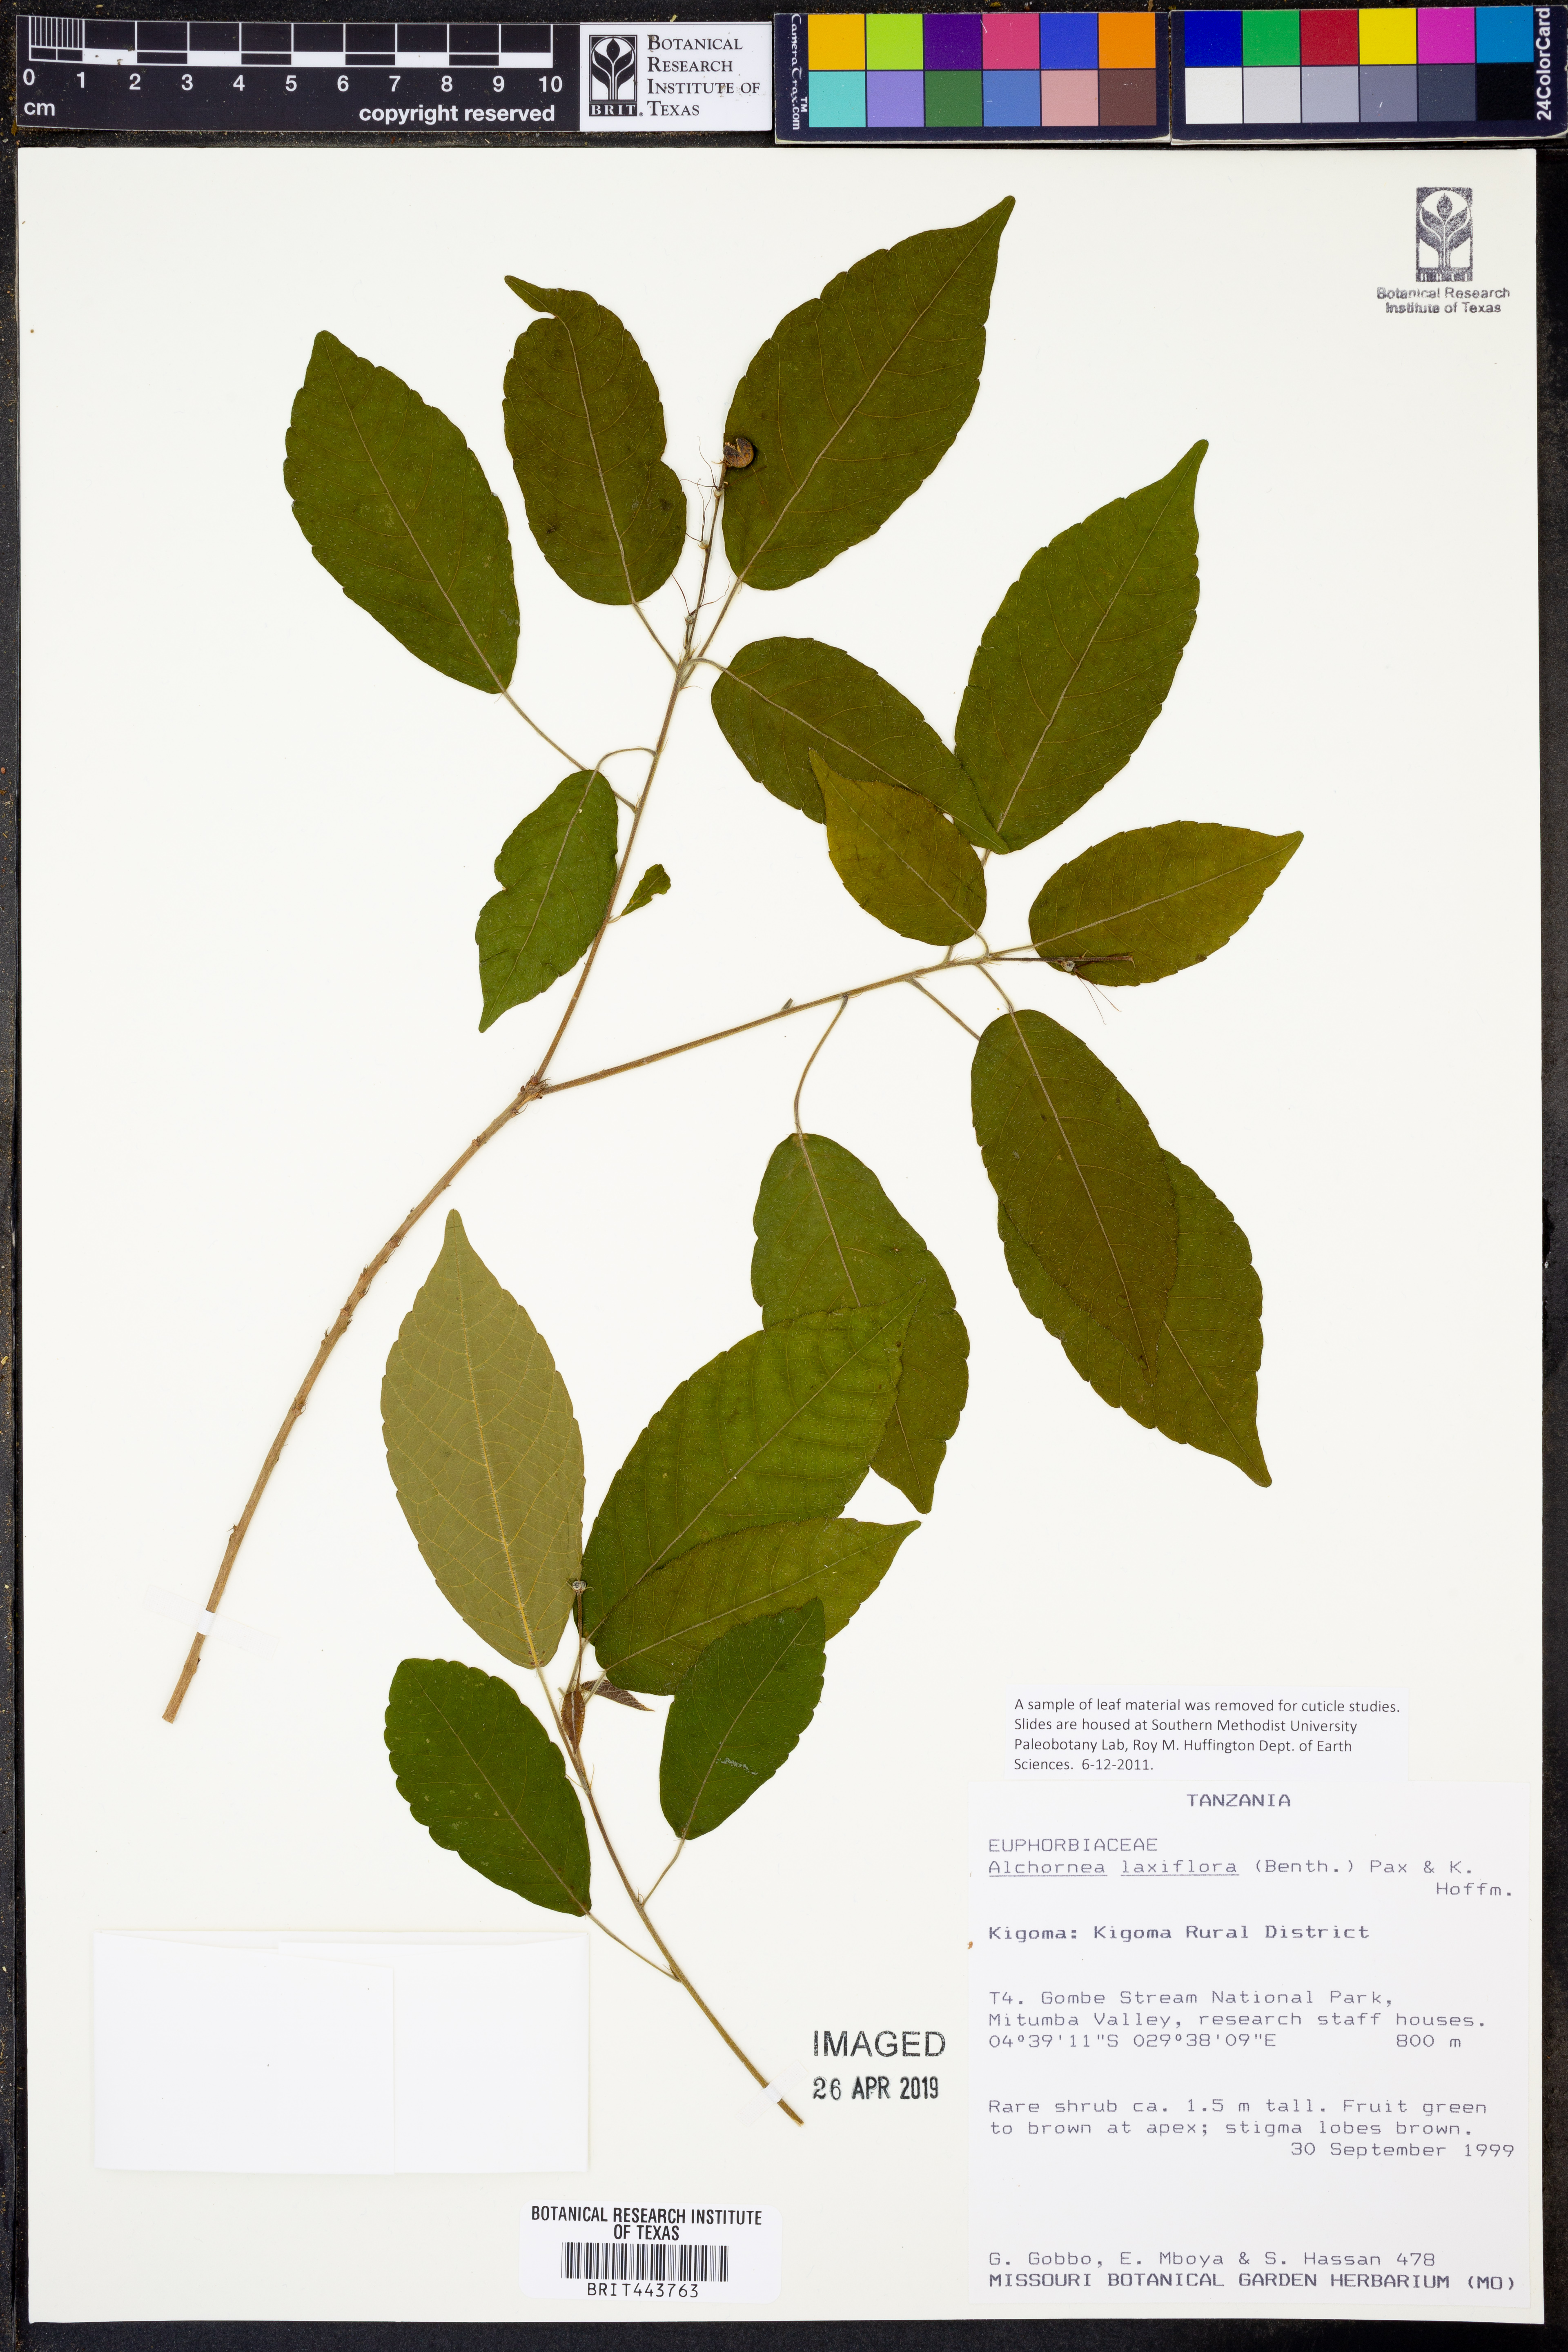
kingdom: Plantae
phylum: Tracheophyta
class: Magnoliopsida
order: Malpighiales
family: Euphorbiaceae
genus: Alchornea
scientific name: Alchornea laxiflora
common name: Lowveld bead-string
